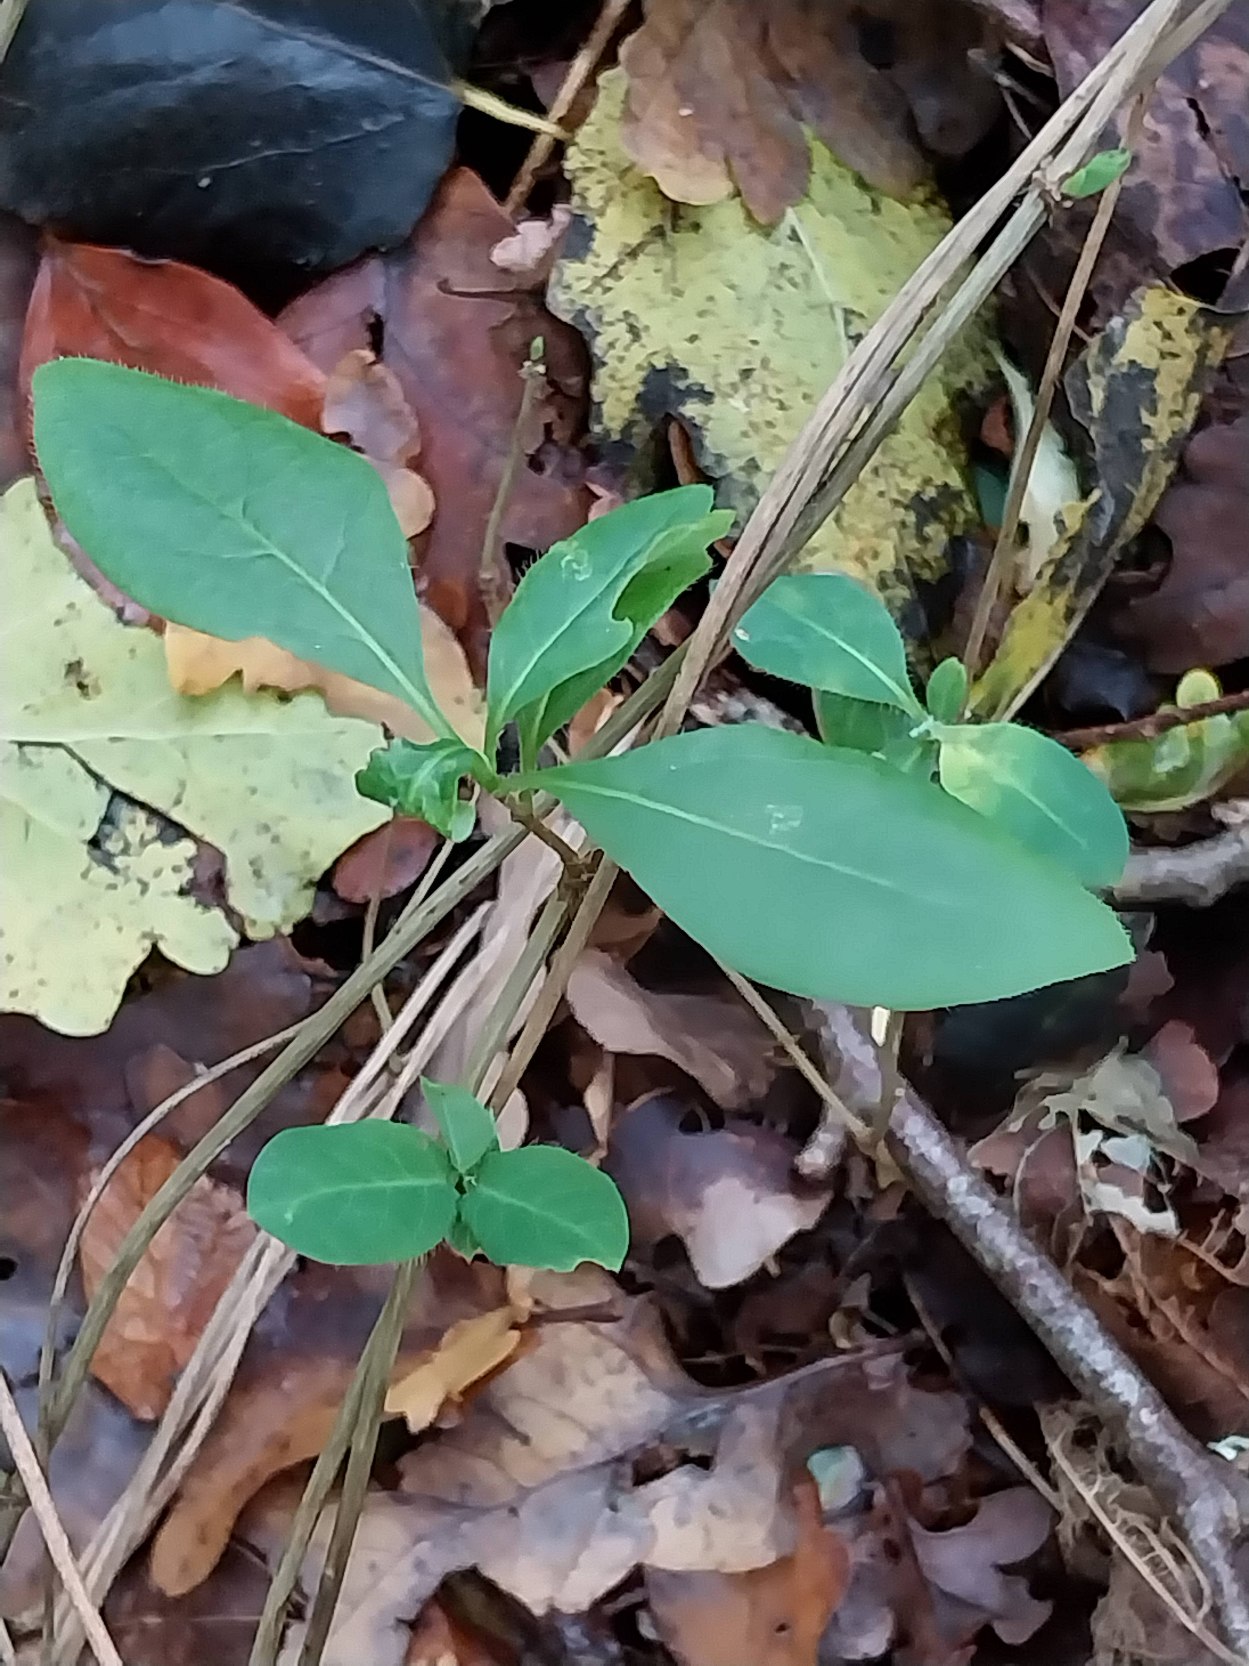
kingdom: Plantae
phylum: Tracheophyta
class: Magnoliopsida
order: Dipsacales
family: Caprifoliaceae
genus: Lonicera
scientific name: Lonicera periclymenum
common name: Almindelig gedeblad
